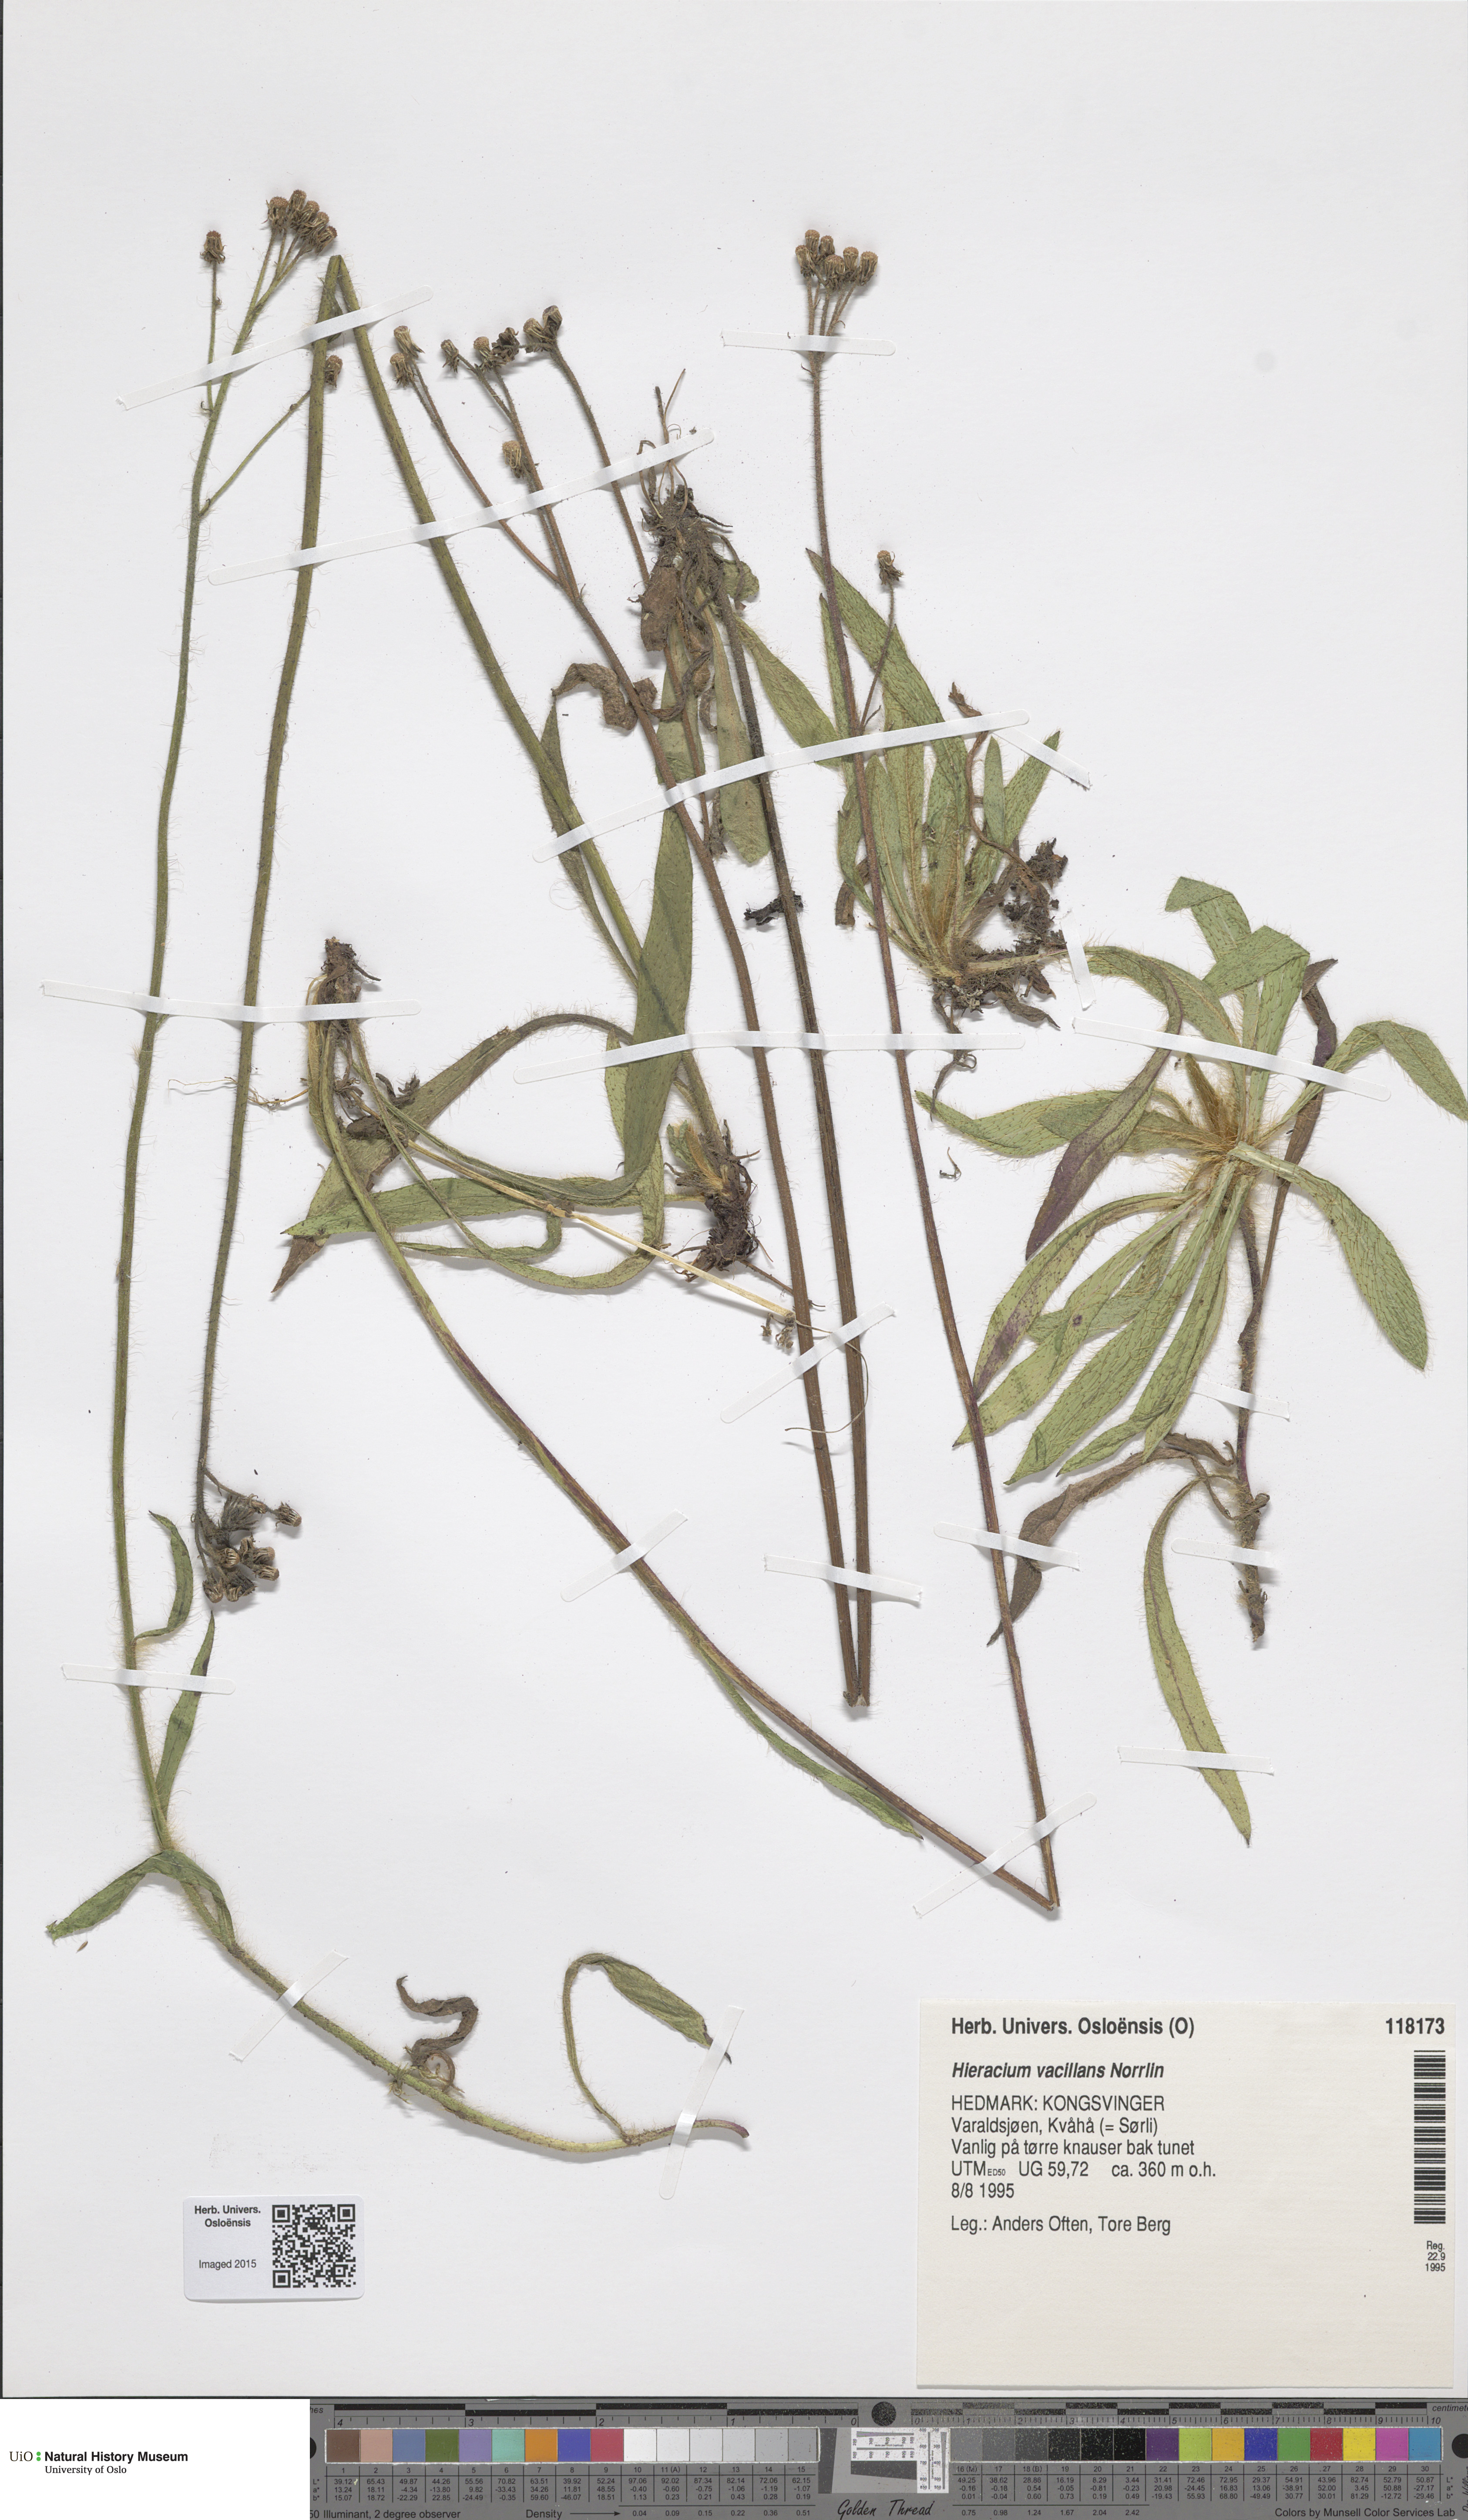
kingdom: Plantae
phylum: Tracheophyta
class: Magnoliopsida
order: Asterales
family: Asteraceae
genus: Pilosella
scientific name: Pilosella glomerata
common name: Queen devil hawkweed
